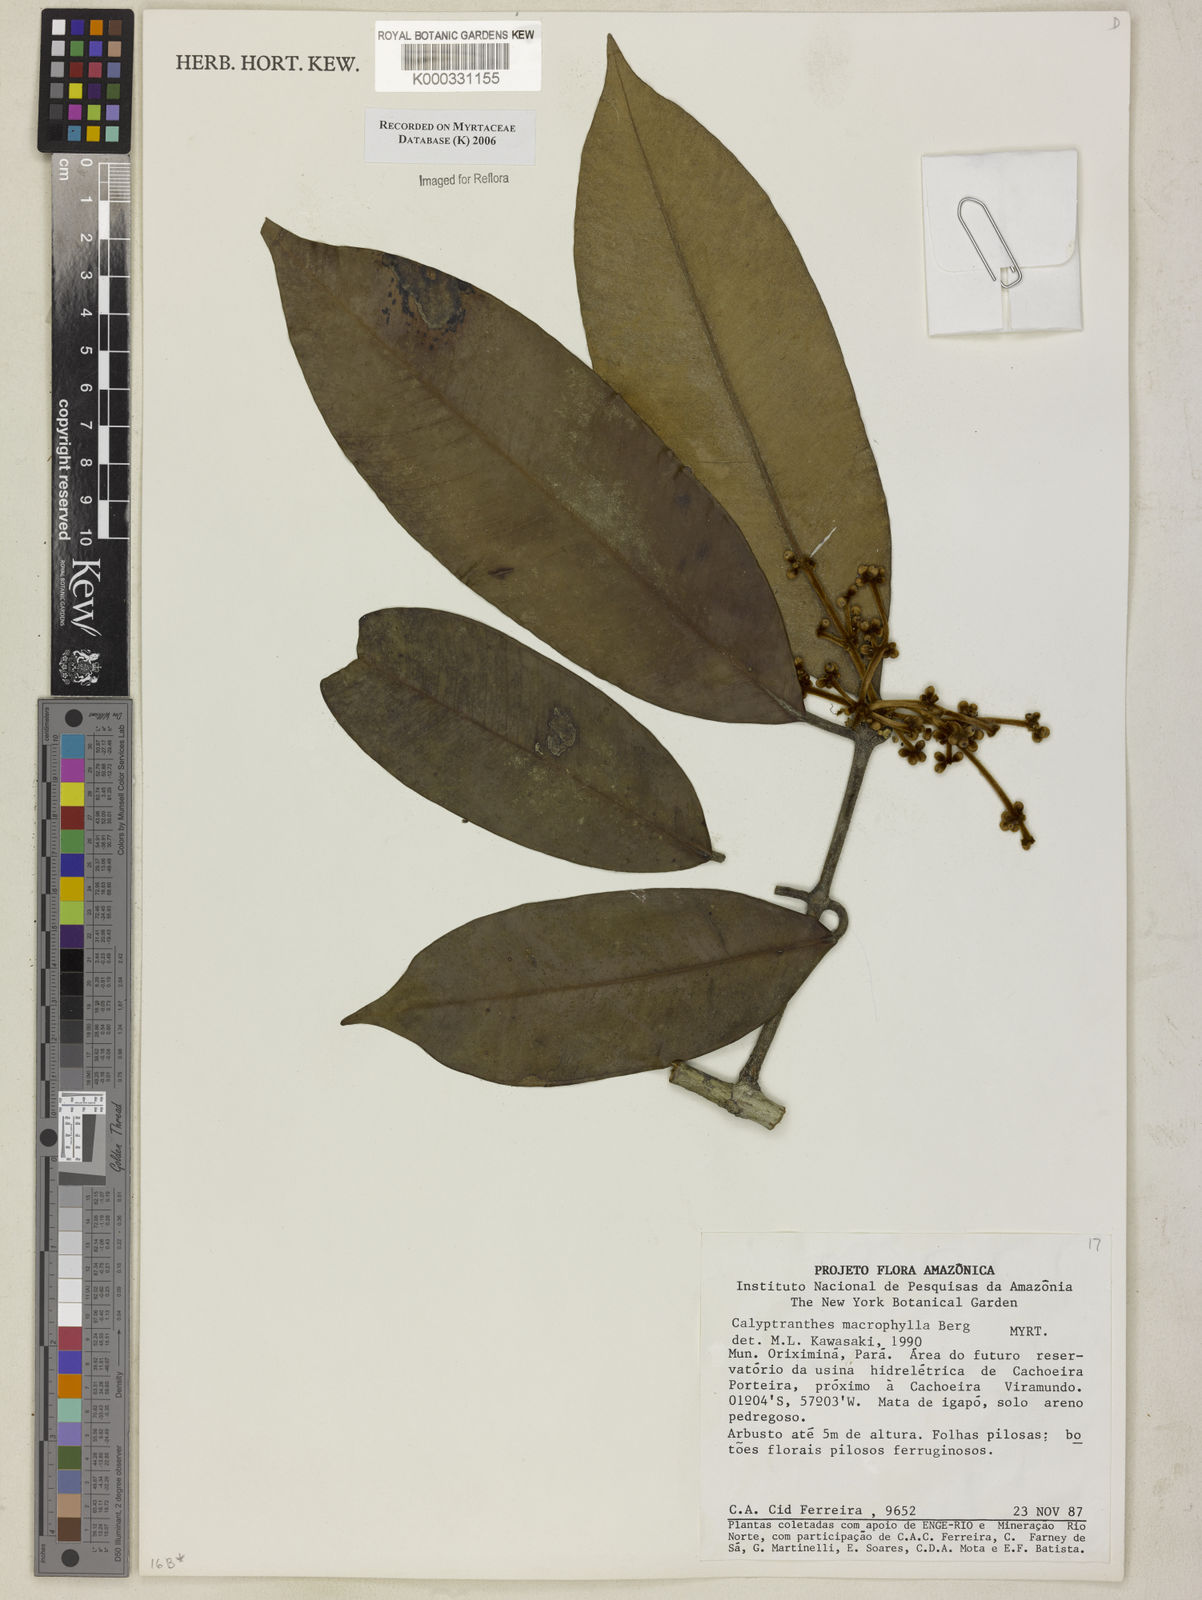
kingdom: Plantae
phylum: Tracheophyta
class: Magnoliopsida
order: Myrtales
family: Myrtaceae
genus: Myrcia
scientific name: Myrcia neomacrophylla
